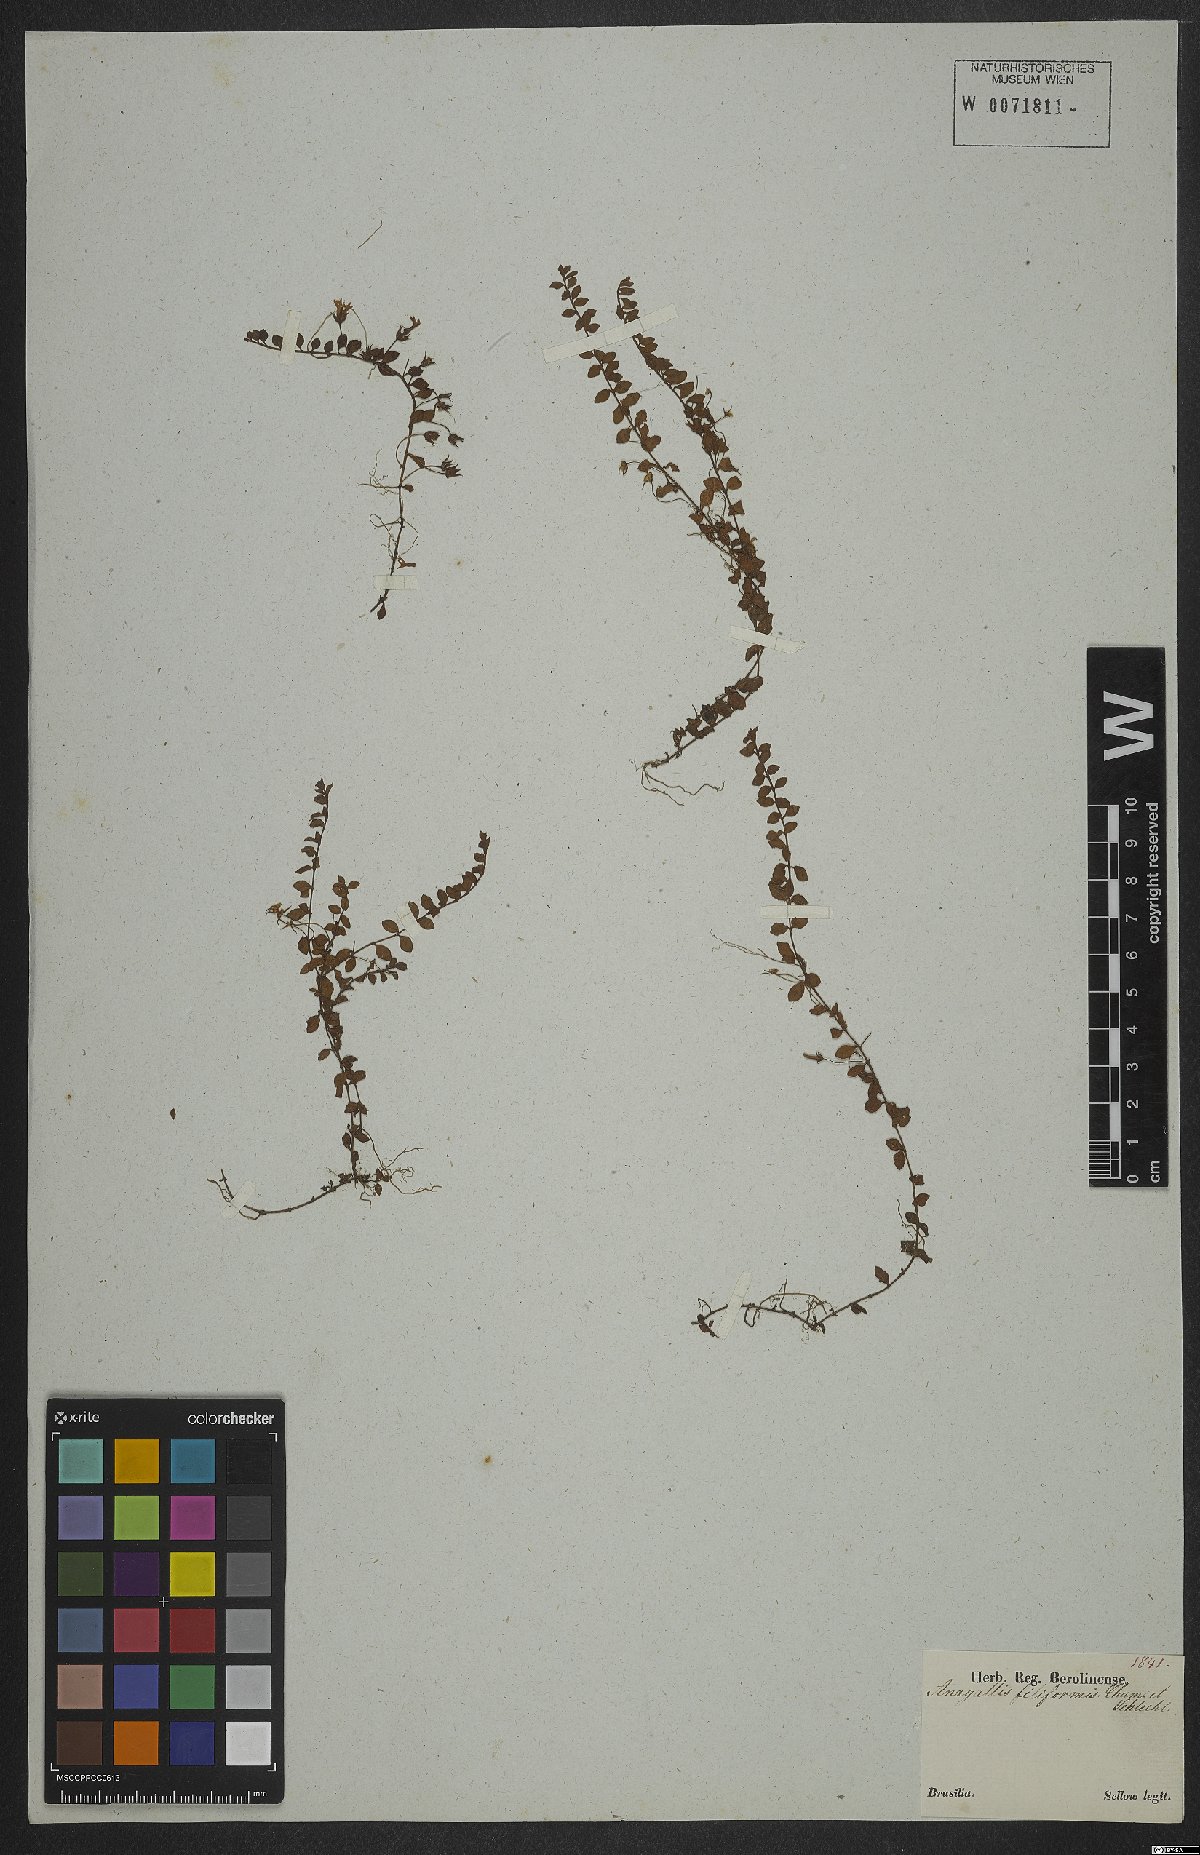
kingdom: Plantae
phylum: Tracheophyta
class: Magnoliopsida
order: Ericales
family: Primulaceae
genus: Lysimachia
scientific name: Lysimachia filiformis
